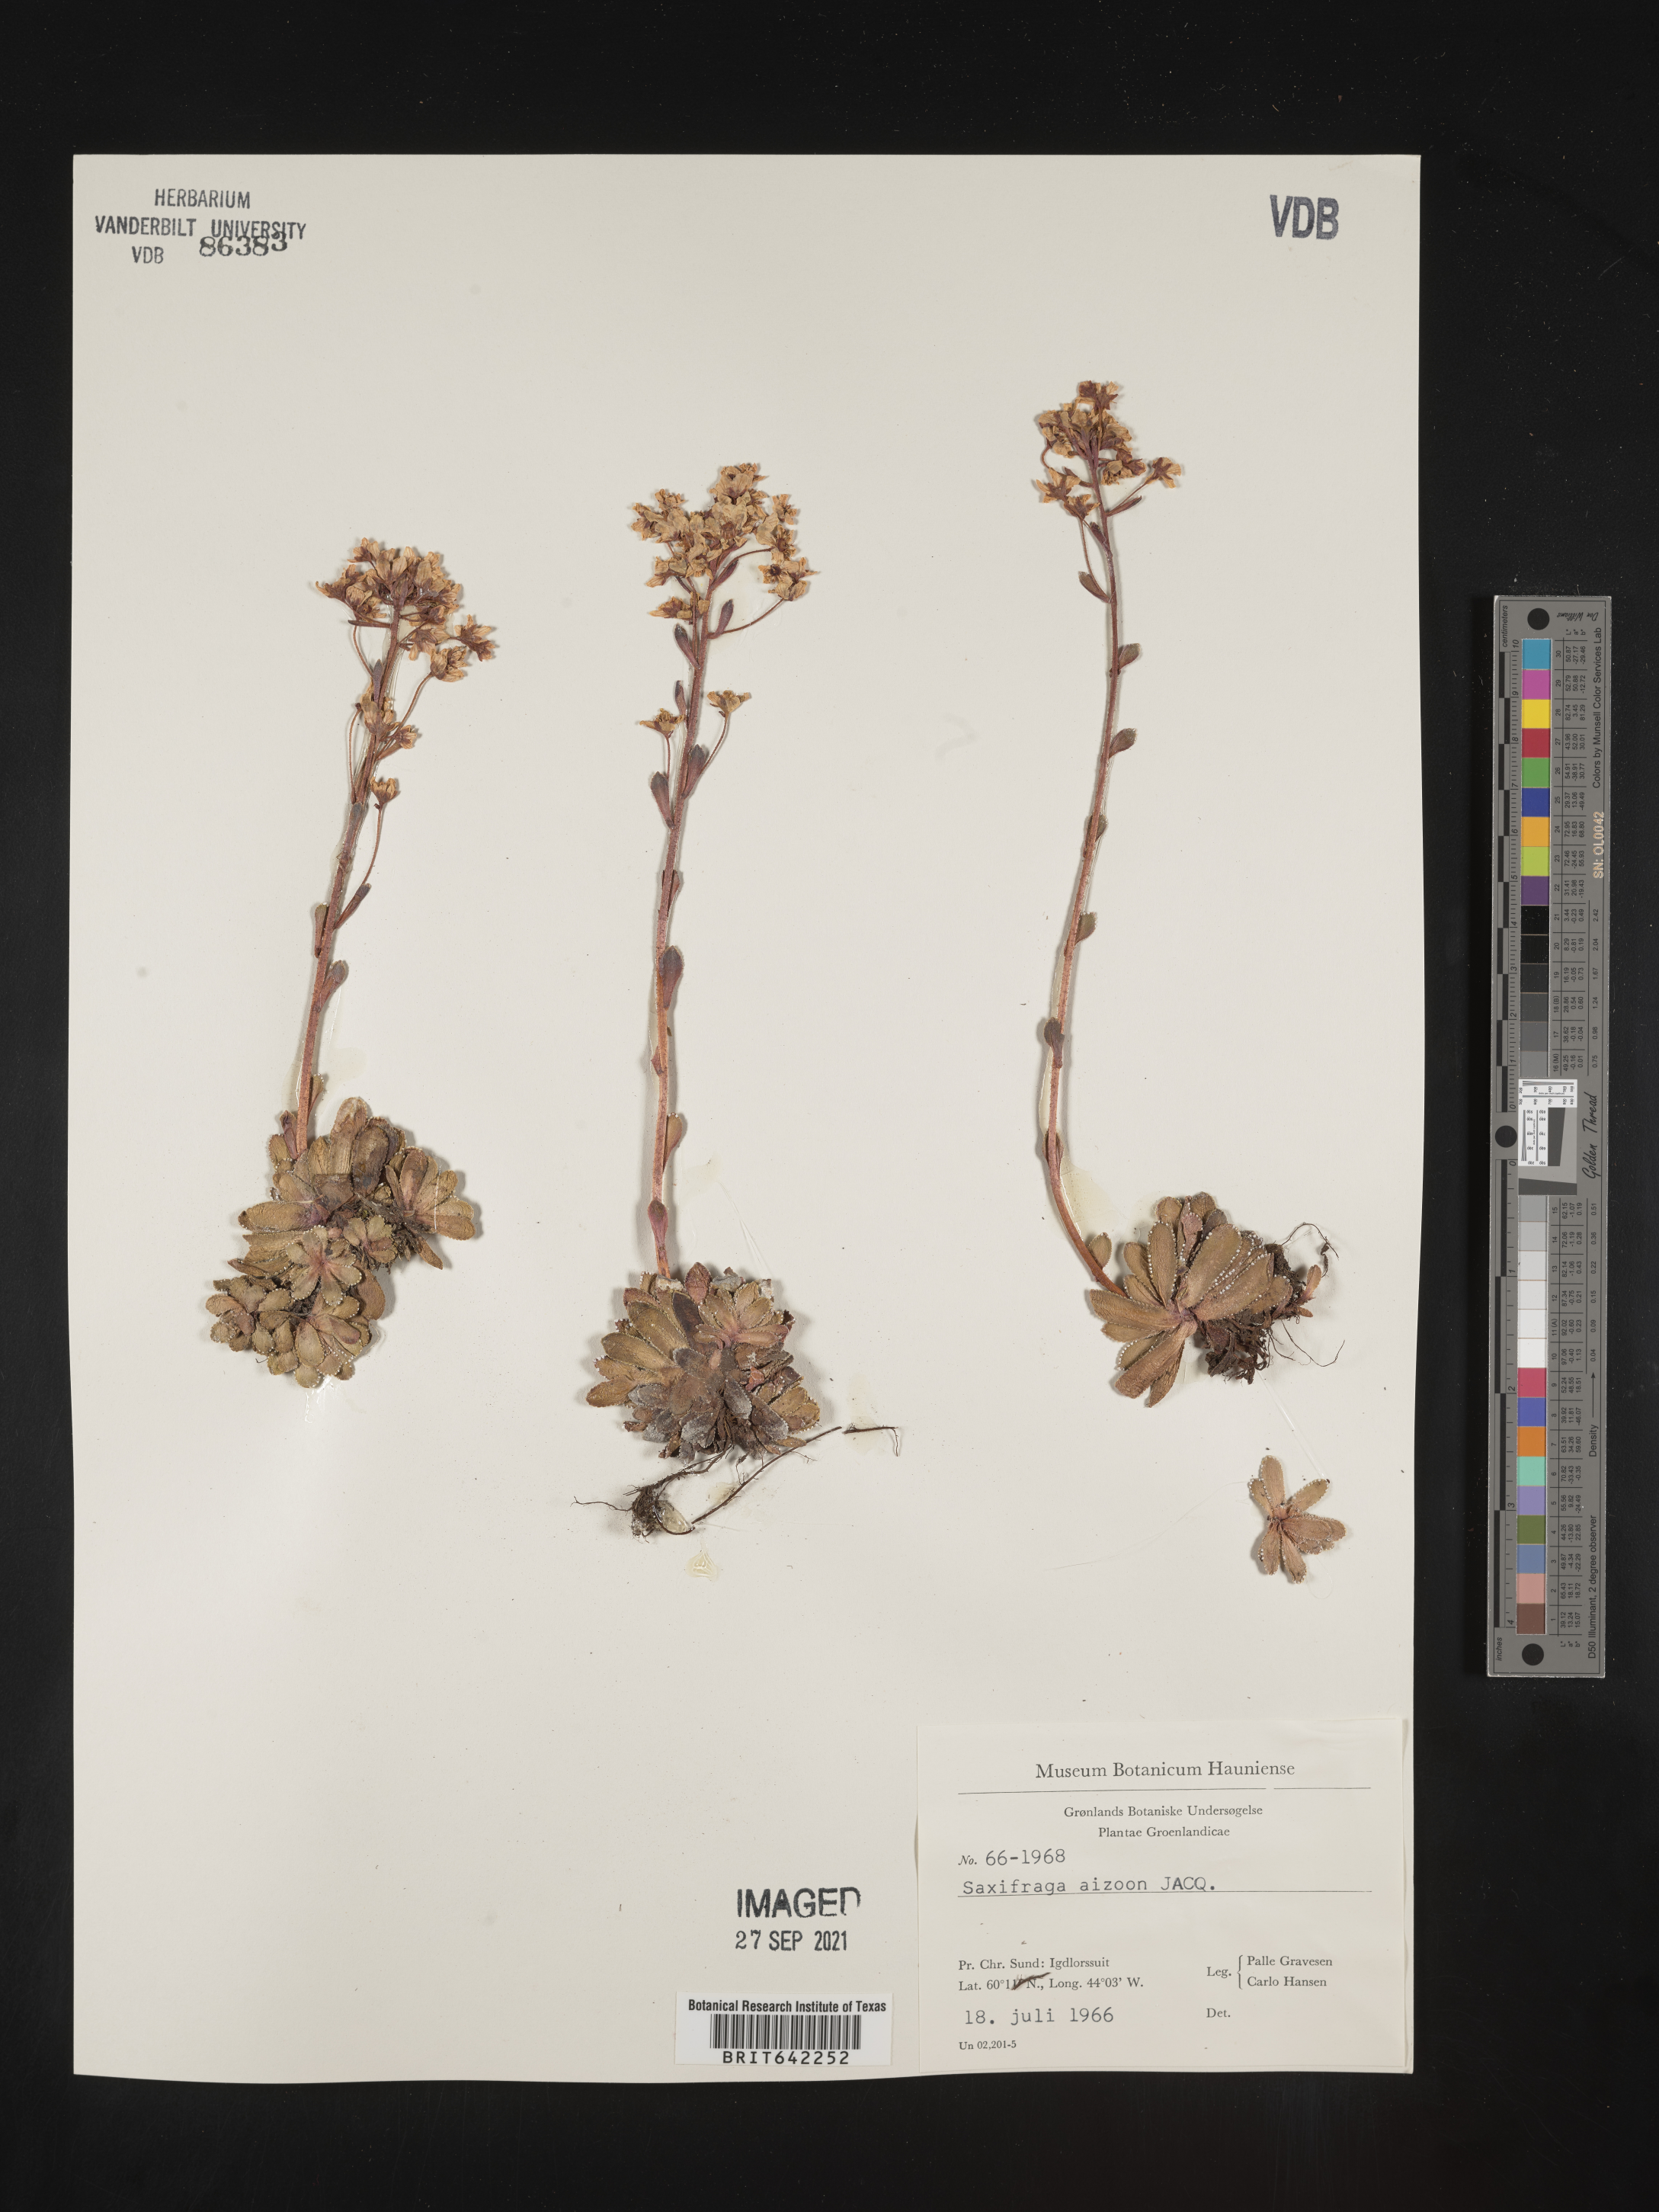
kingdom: Plantae
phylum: Tracheophyta
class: Magnoliopsida
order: Saxifragales
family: Saxifragaceae
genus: Saxifraga
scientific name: Saxifraga
